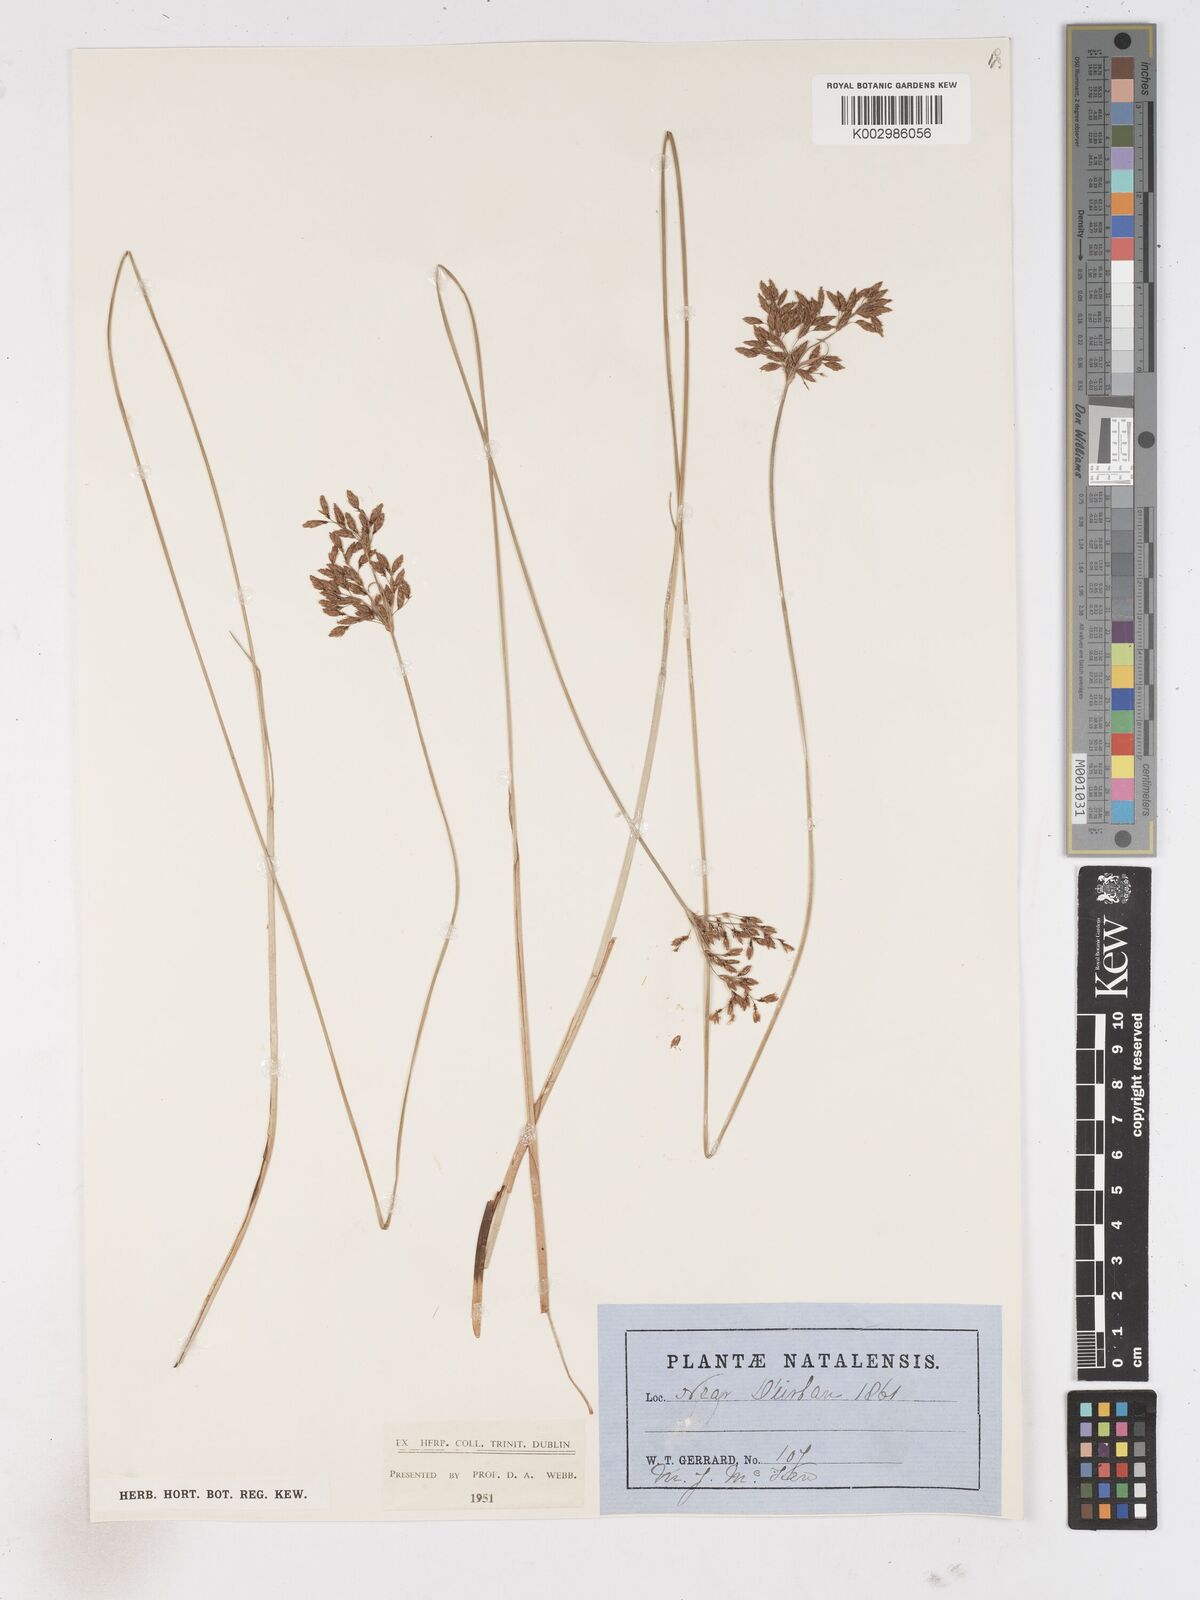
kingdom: Plantae
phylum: Tracheophyta
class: Liliopsida
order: Poales
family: Cyperaceae
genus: Fimbristylis
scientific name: Fimbristylis
